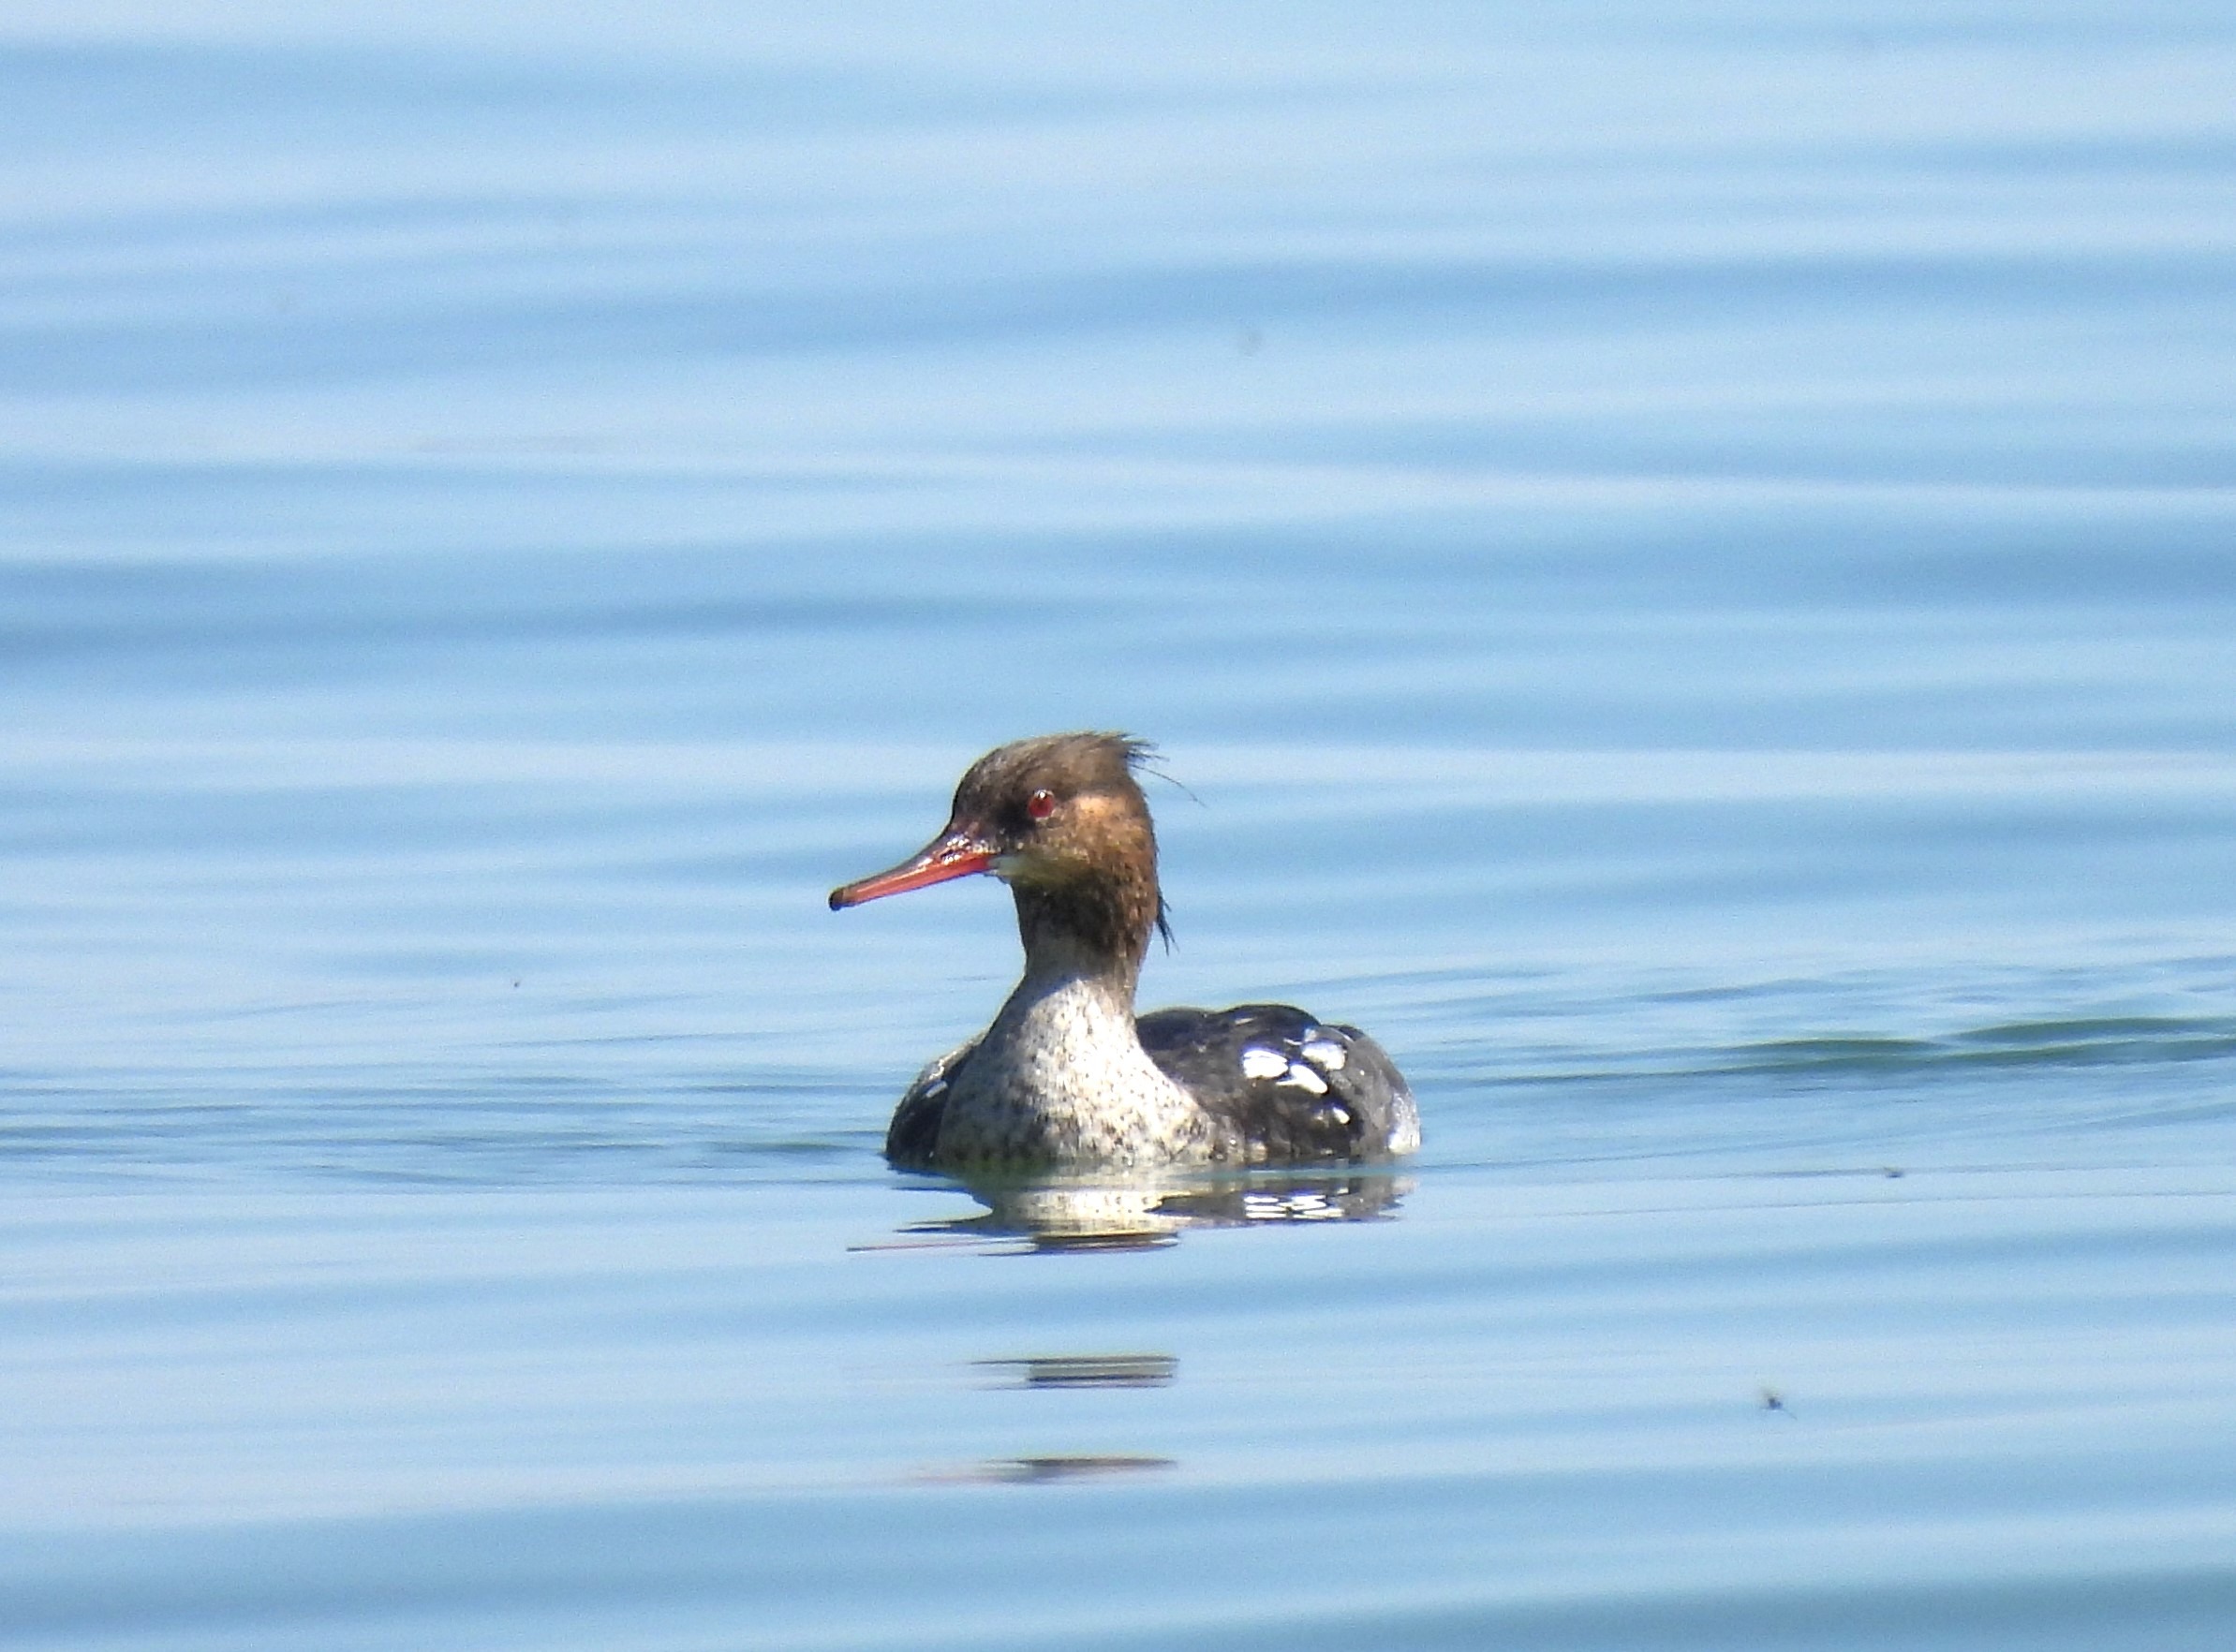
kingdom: Animalia
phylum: Chordata
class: Aves
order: Anseriformes
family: Anatidae
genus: Mergus
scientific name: Mergus serrator
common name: Toppet skallesluger
